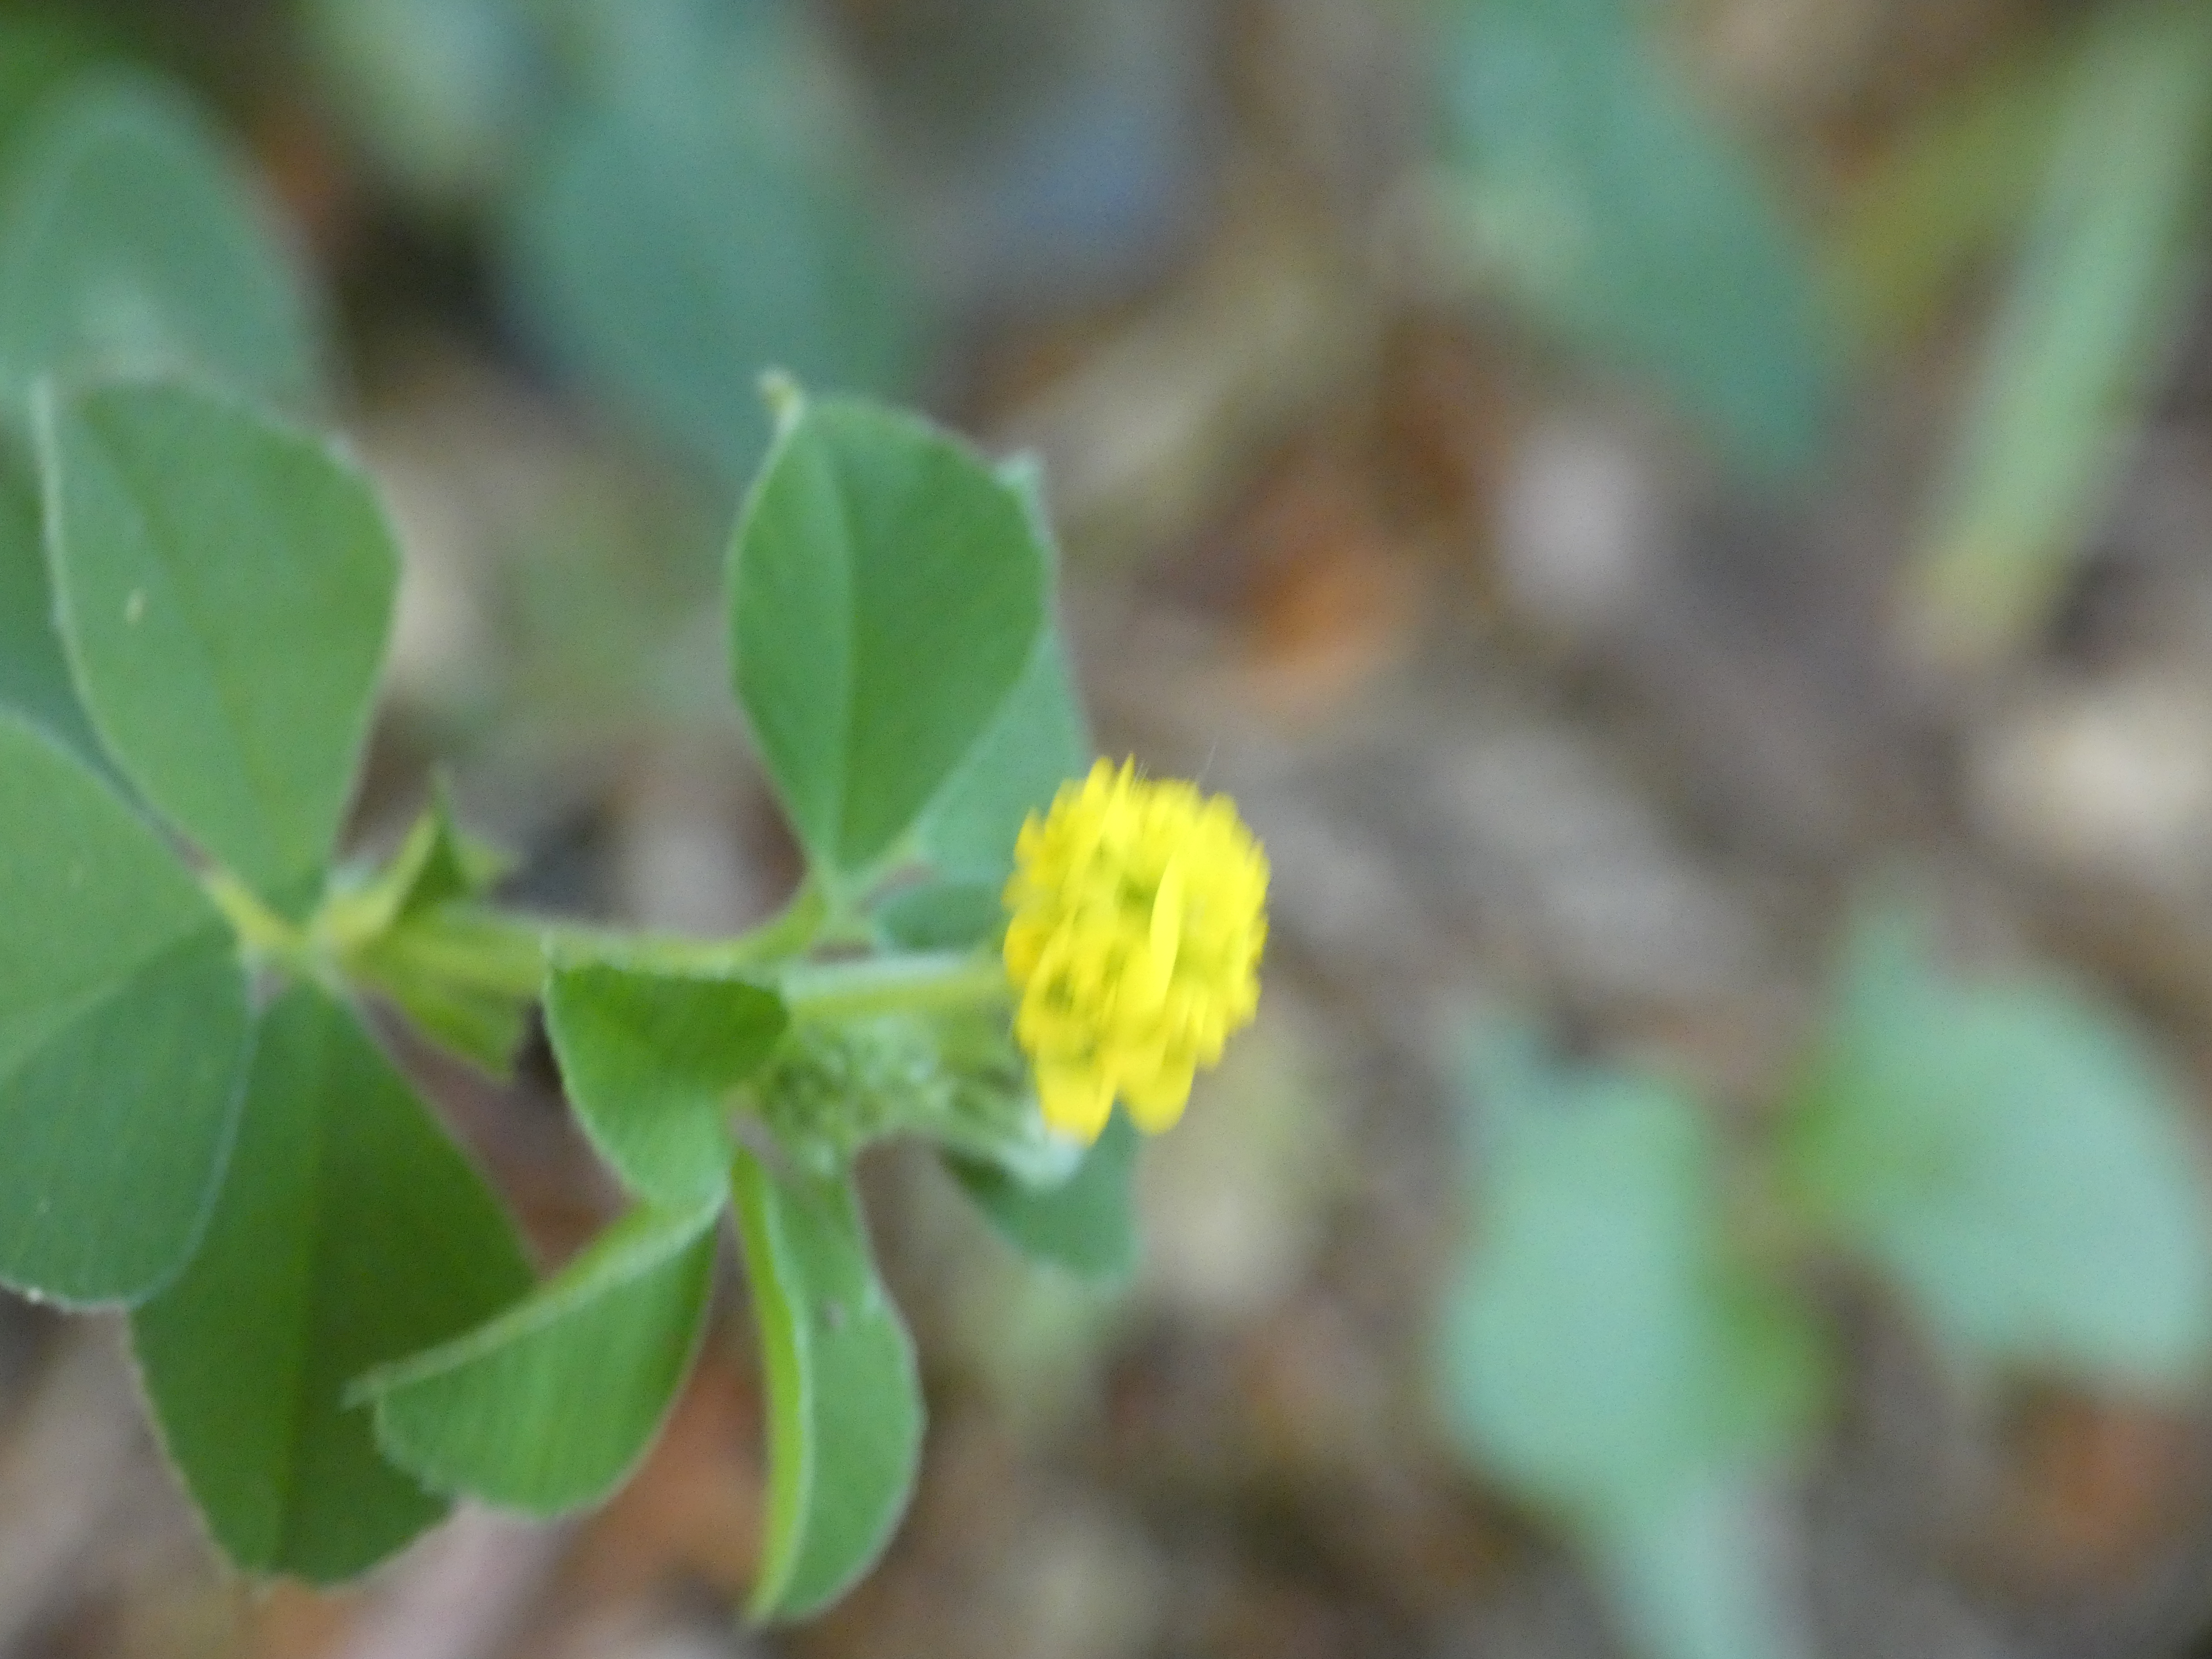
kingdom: Plantae
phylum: Tracheophyta
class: Magnoliopsida
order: Fabales
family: Fabaceae
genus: Medicago
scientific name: Medicago lupulina
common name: Humle-sneglebælg
